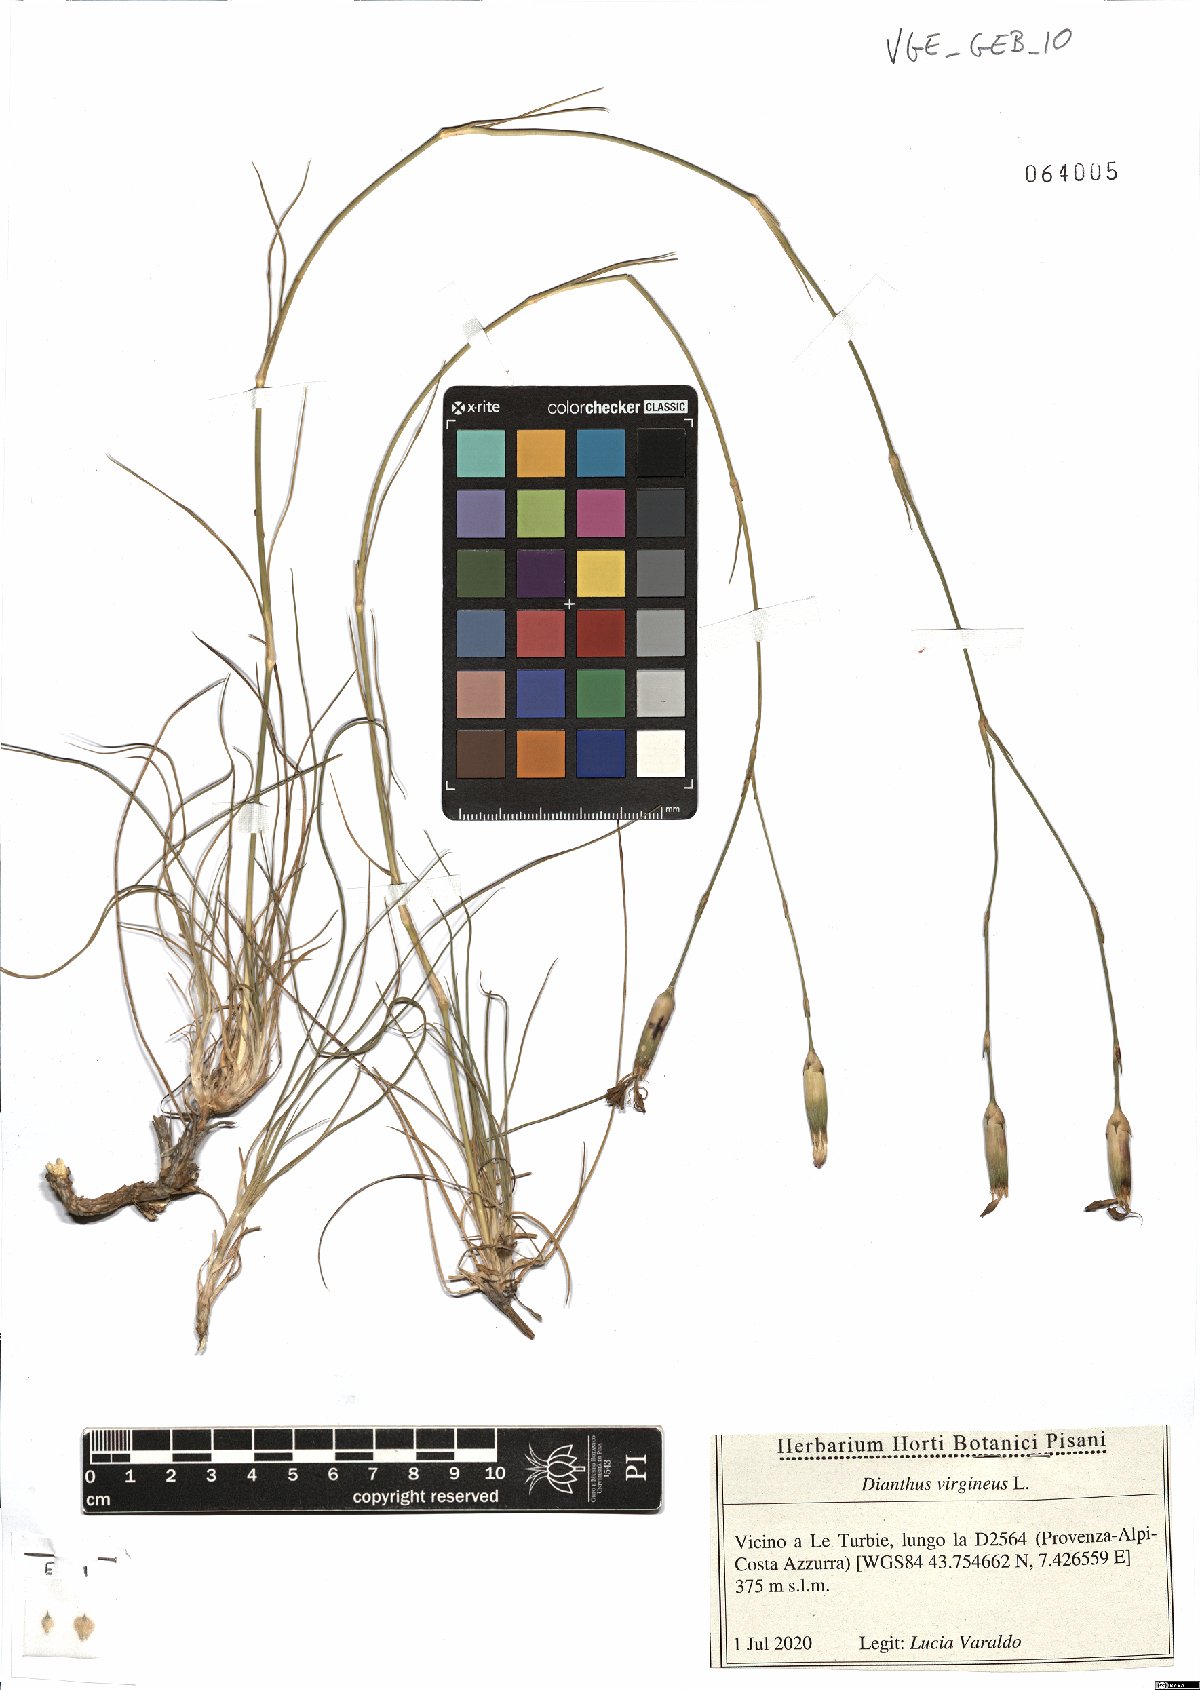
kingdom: Plantae
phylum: Tracheophyta
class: Magnoliopsida
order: Caryophyllales
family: Caryophyllaceae
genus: Dianthus
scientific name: Dianthus virgineus
